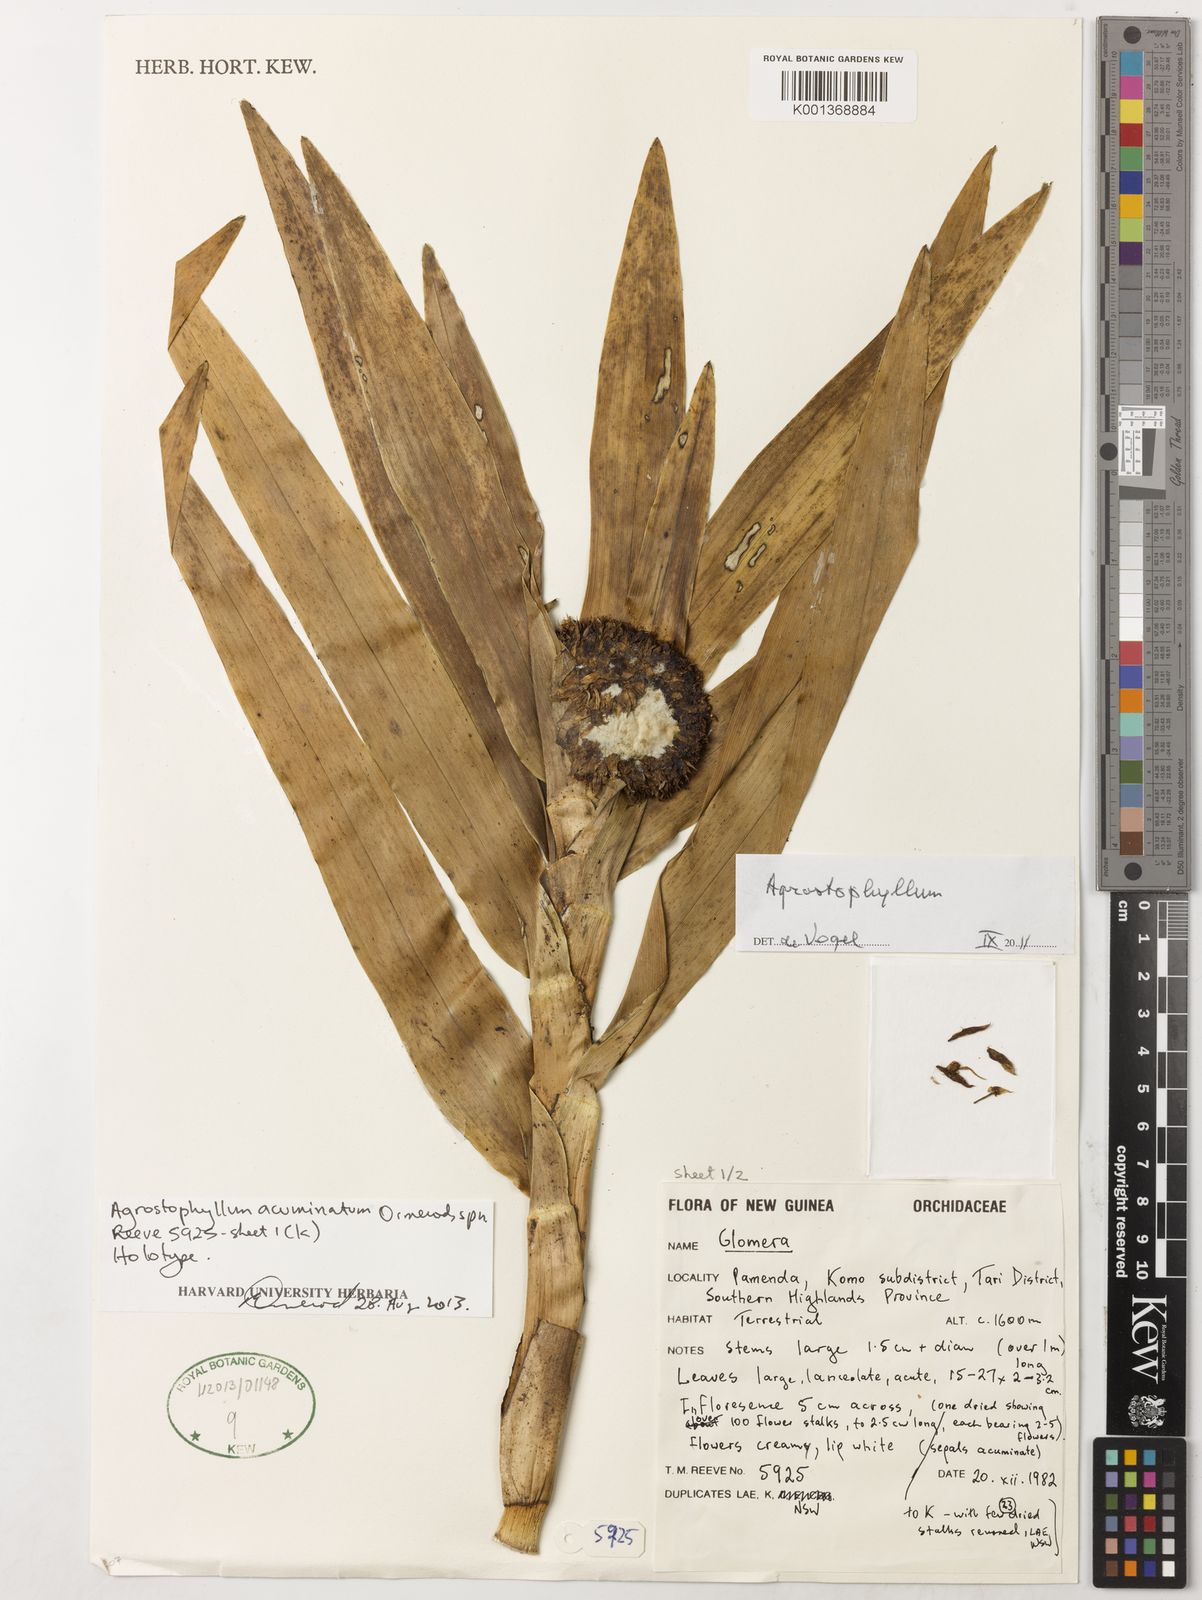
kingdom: Plantae
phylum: Tracheophyta
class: Liliopsida
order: Asparagales
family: Orchidaceae
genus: Agrostophyllum
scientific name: Agrostophyllum acuminatum
